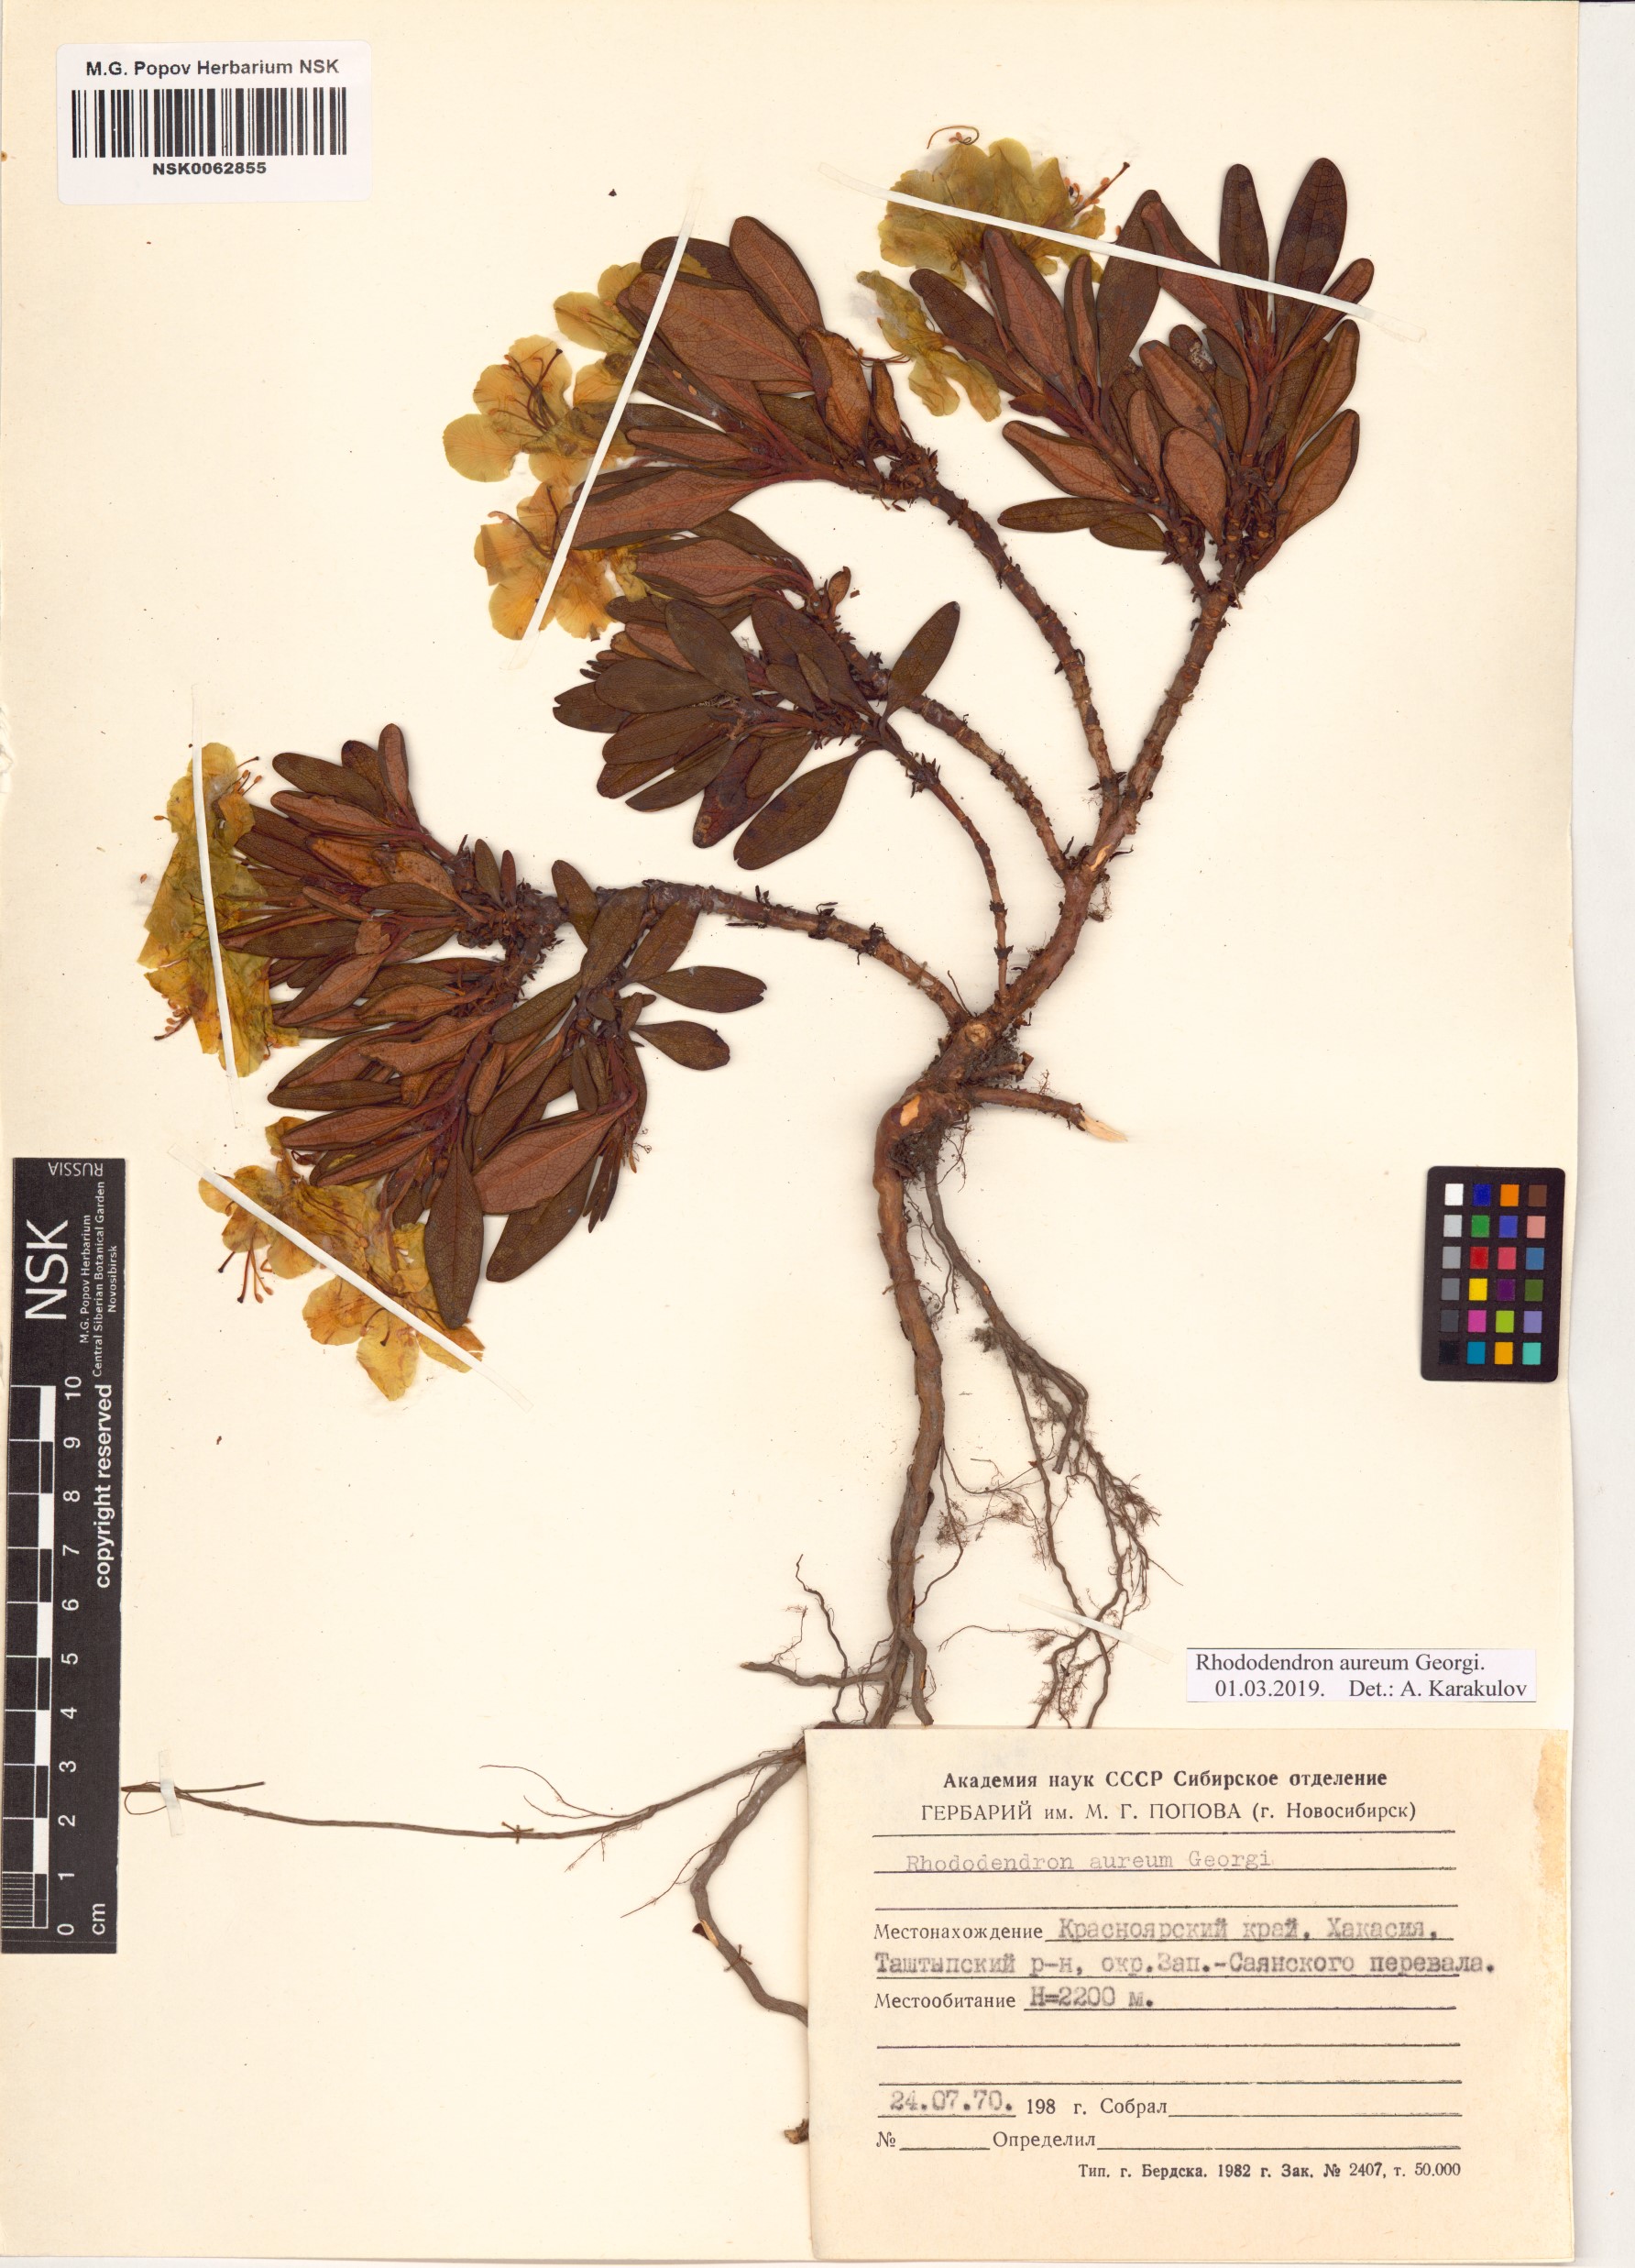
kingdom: Plantae
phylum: Tracheophyta
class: Magnoliopsida
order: Ericales
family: Ericaceae
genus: Rhododendron
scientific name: Rhododendron aureum
